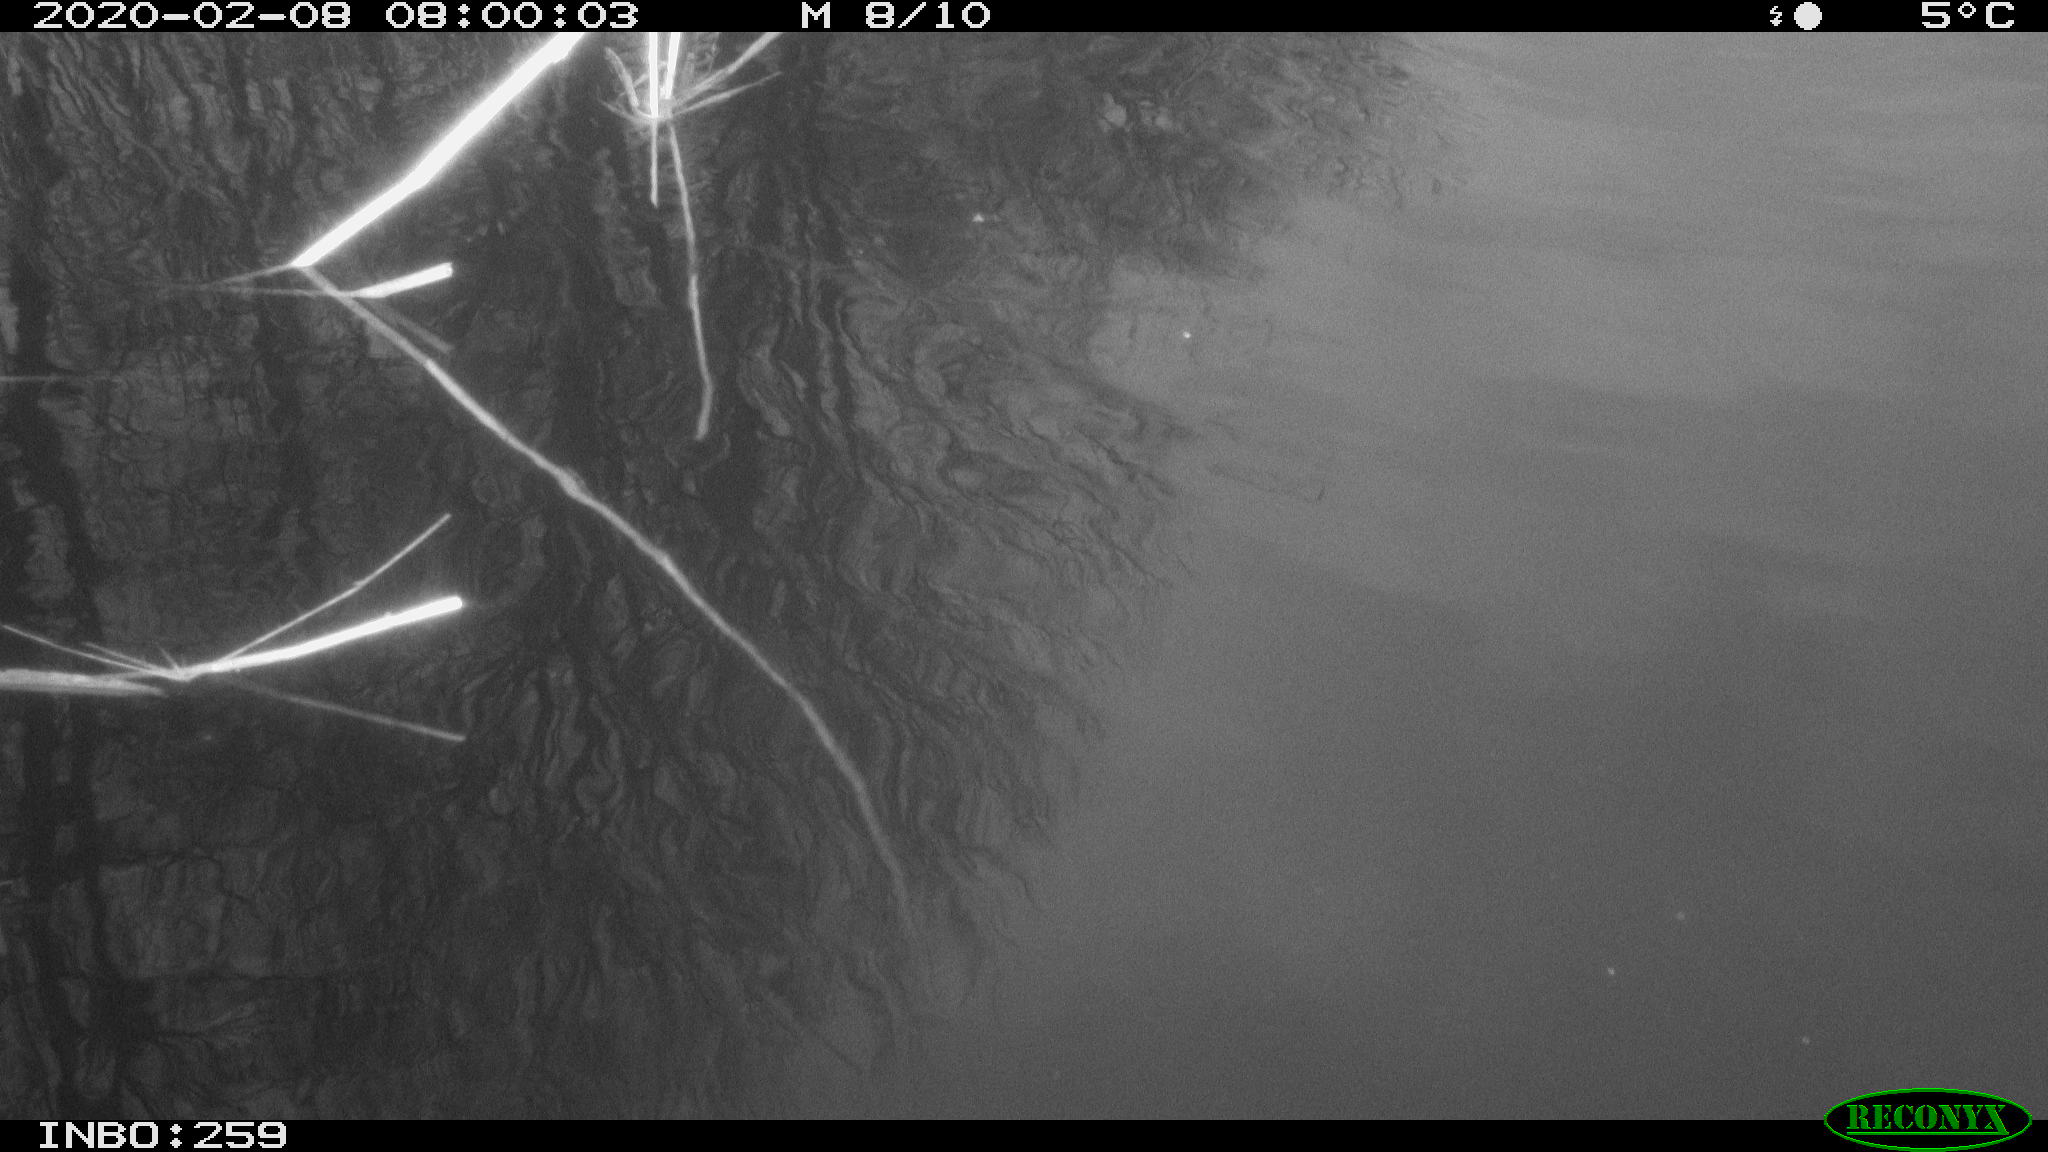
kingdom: Animalia
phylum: Chordata
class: Aves
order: Gruiformes
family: Rallidae
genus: Gallinula
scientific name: Gallinula chloropus
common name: Common moorhen
